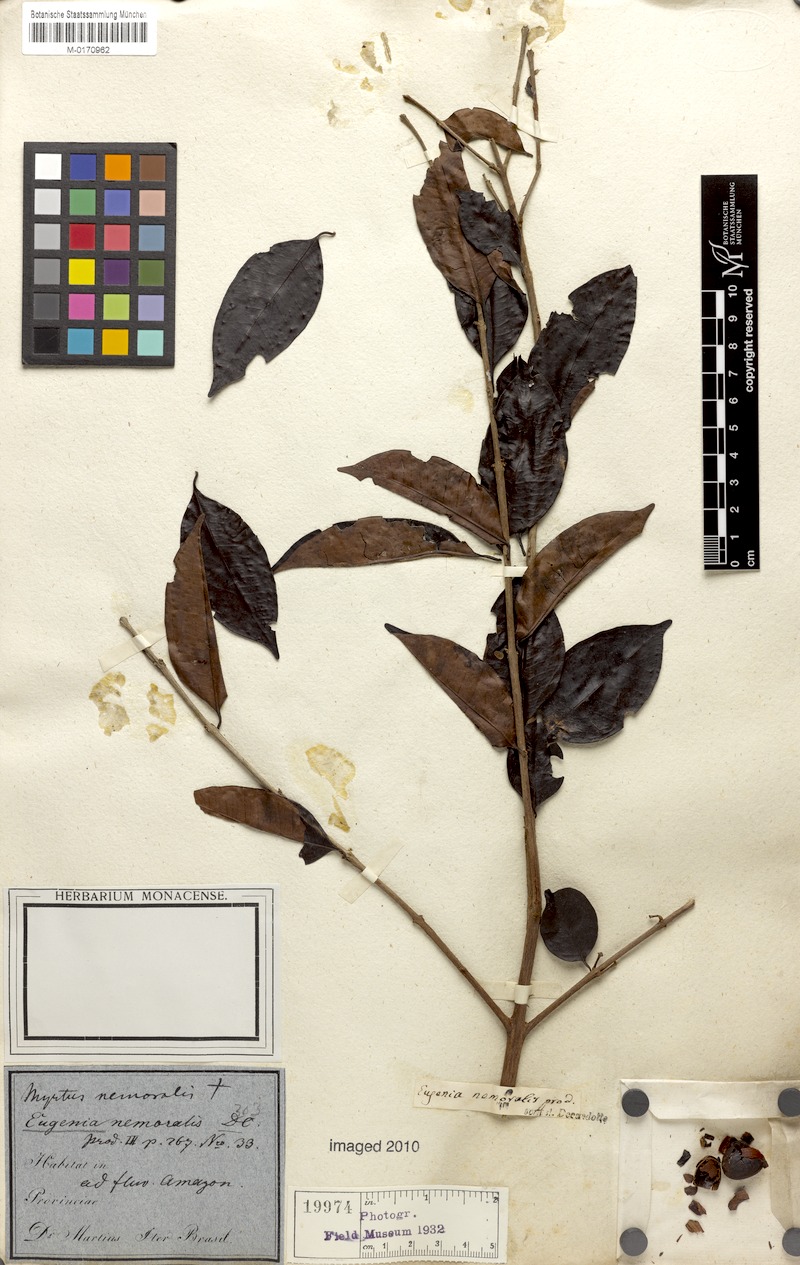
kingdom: Plantae
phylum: Tracheophyta
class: Magnoliopsida
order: Myrtales
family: Myrtaceae
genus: Eugenia
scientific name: Eugenia ferreiraeana
